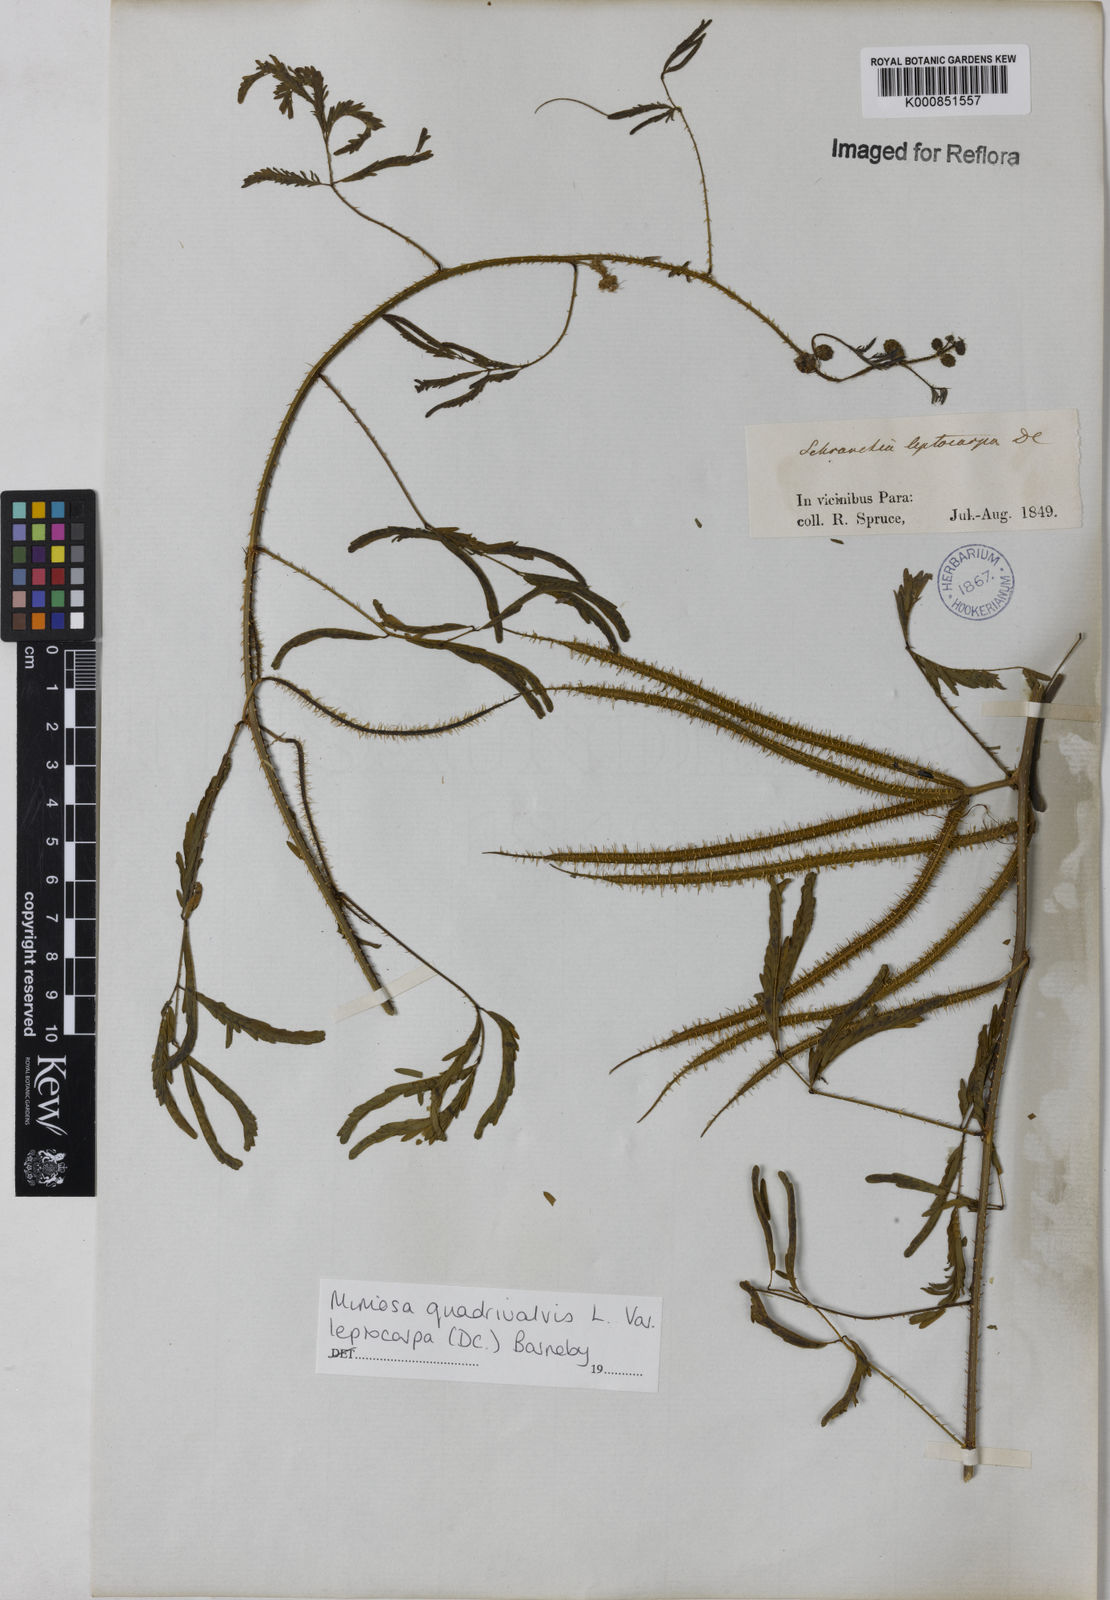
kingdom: Plantae
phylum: Tracheophyta
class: Magnoliopsida
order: Fabales
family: Fabaceae
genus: Mimosa
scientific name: Mimosa candollei
